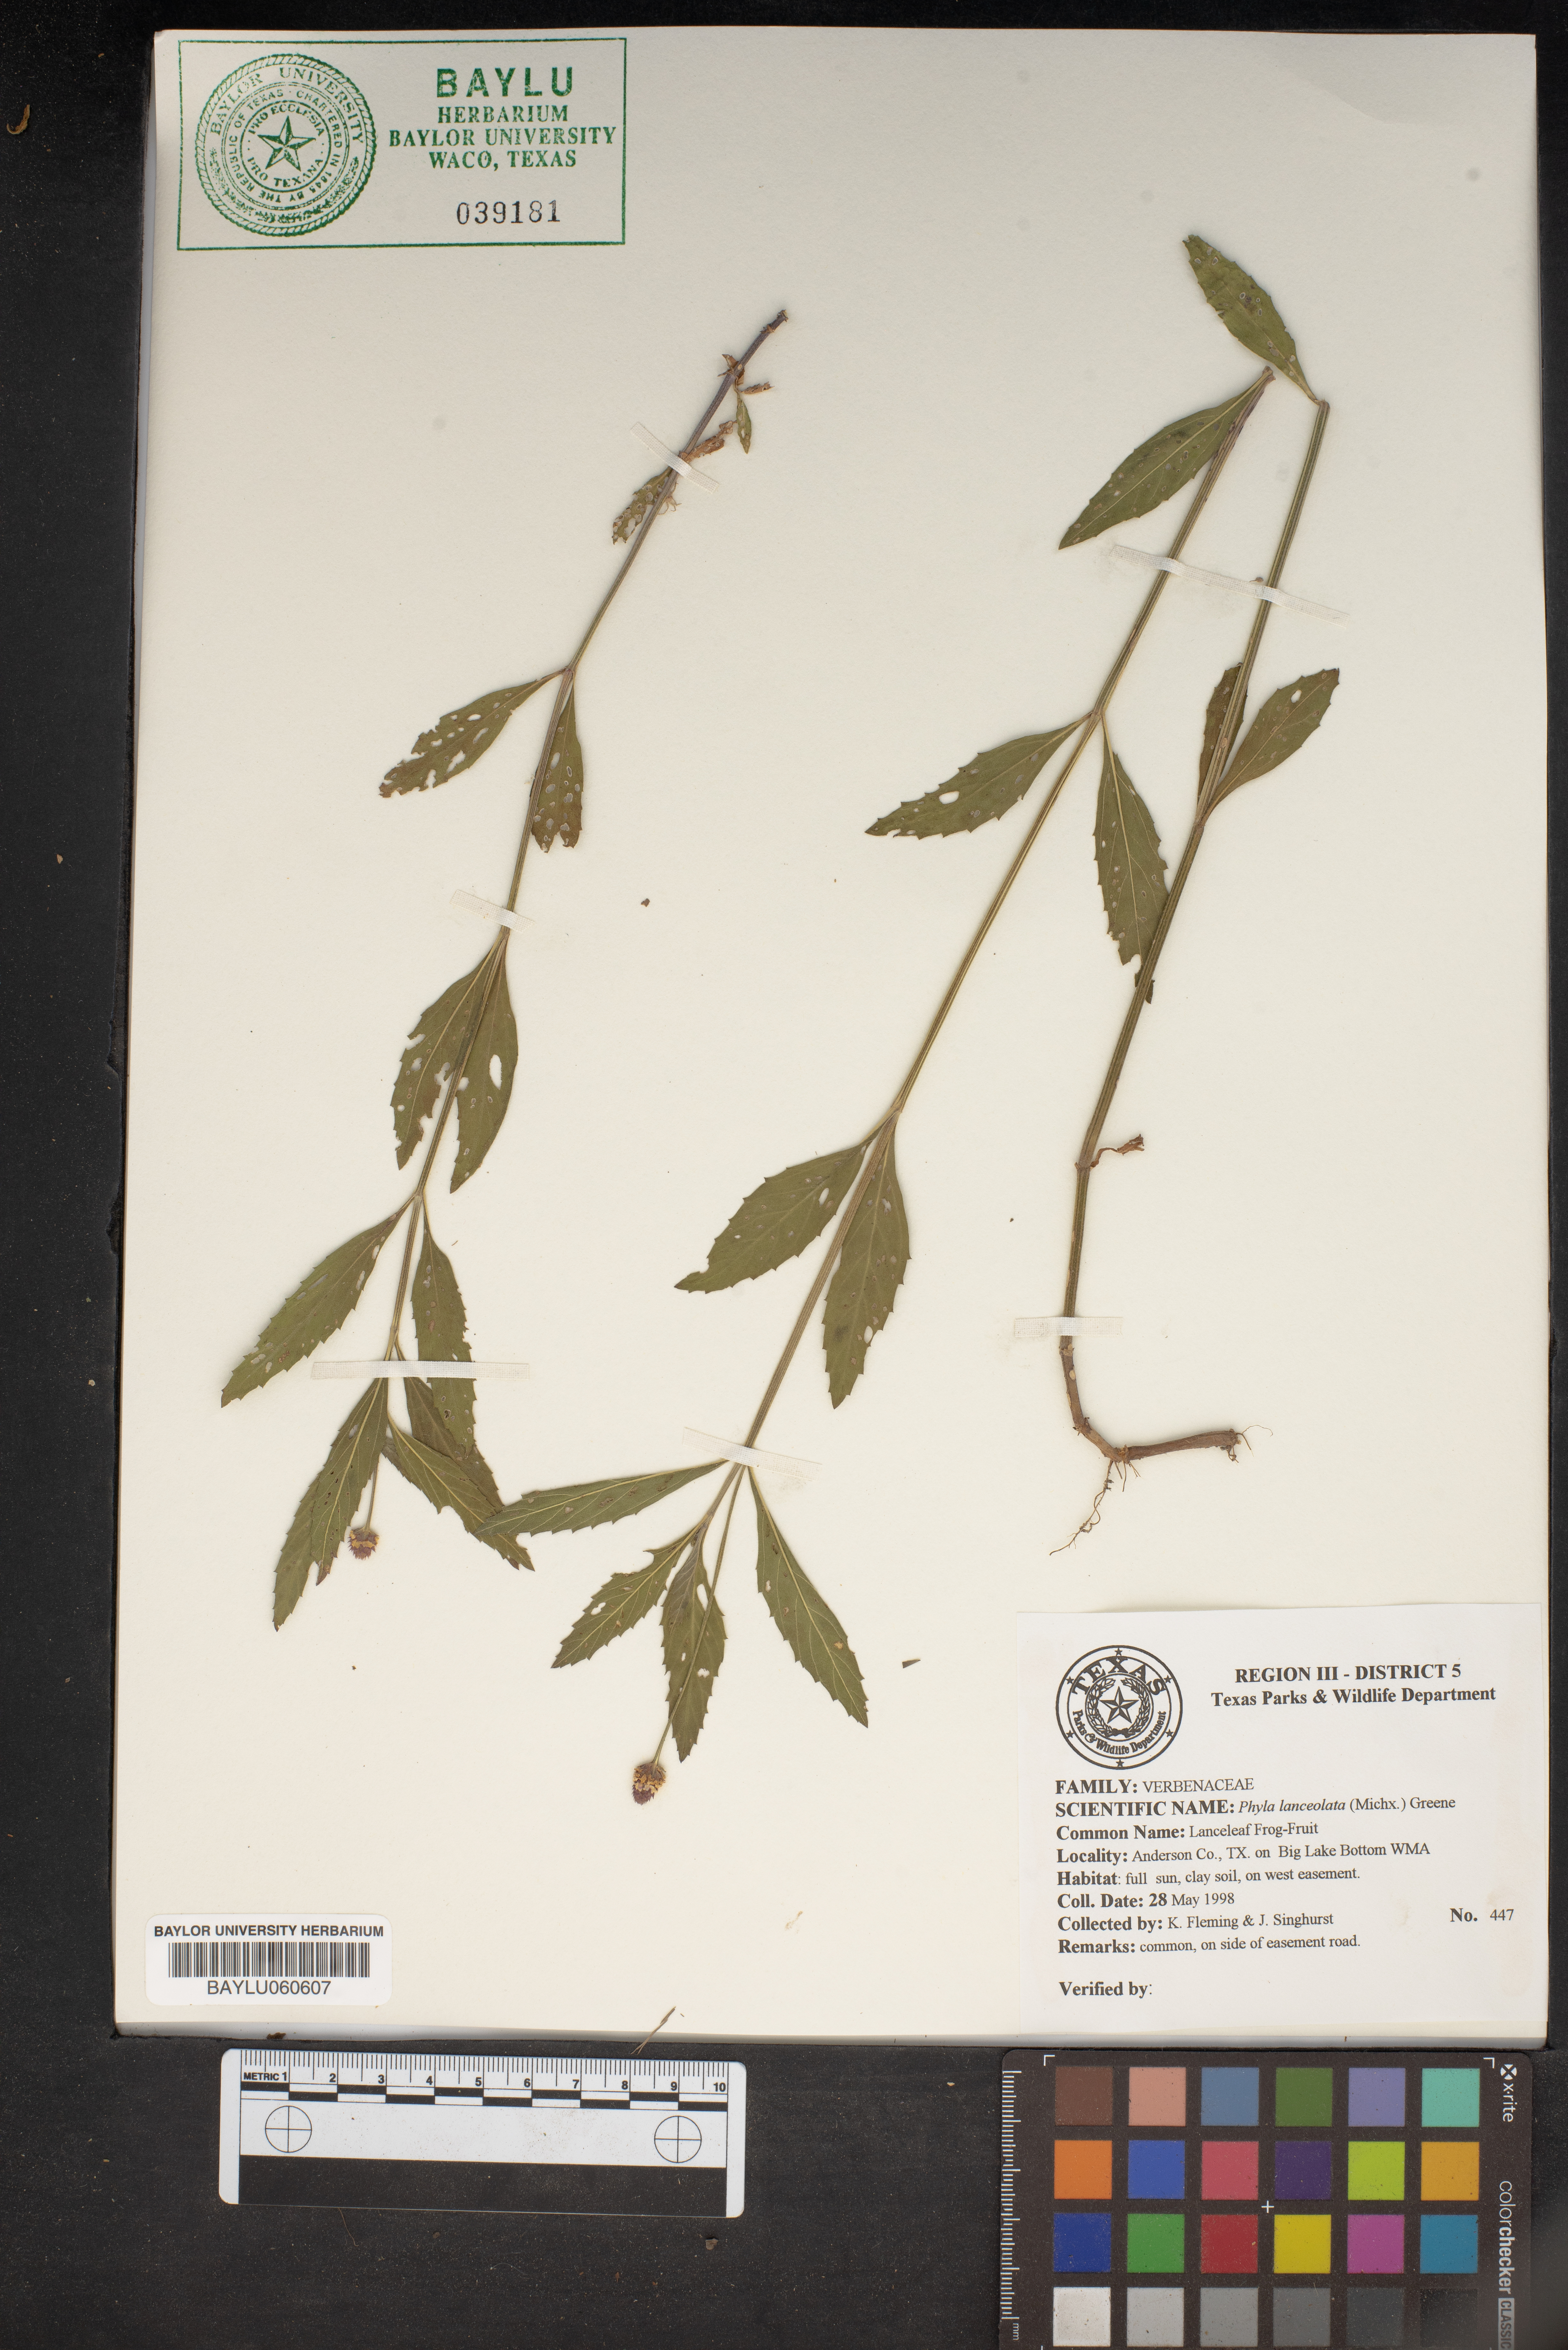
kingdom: Plantae
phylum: Tracheophyta
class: Magnoliopsida
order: Lamiales
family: Verbenaceae
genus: Phyla
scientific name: Phyla lanceolata
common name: Northern fogfruit
